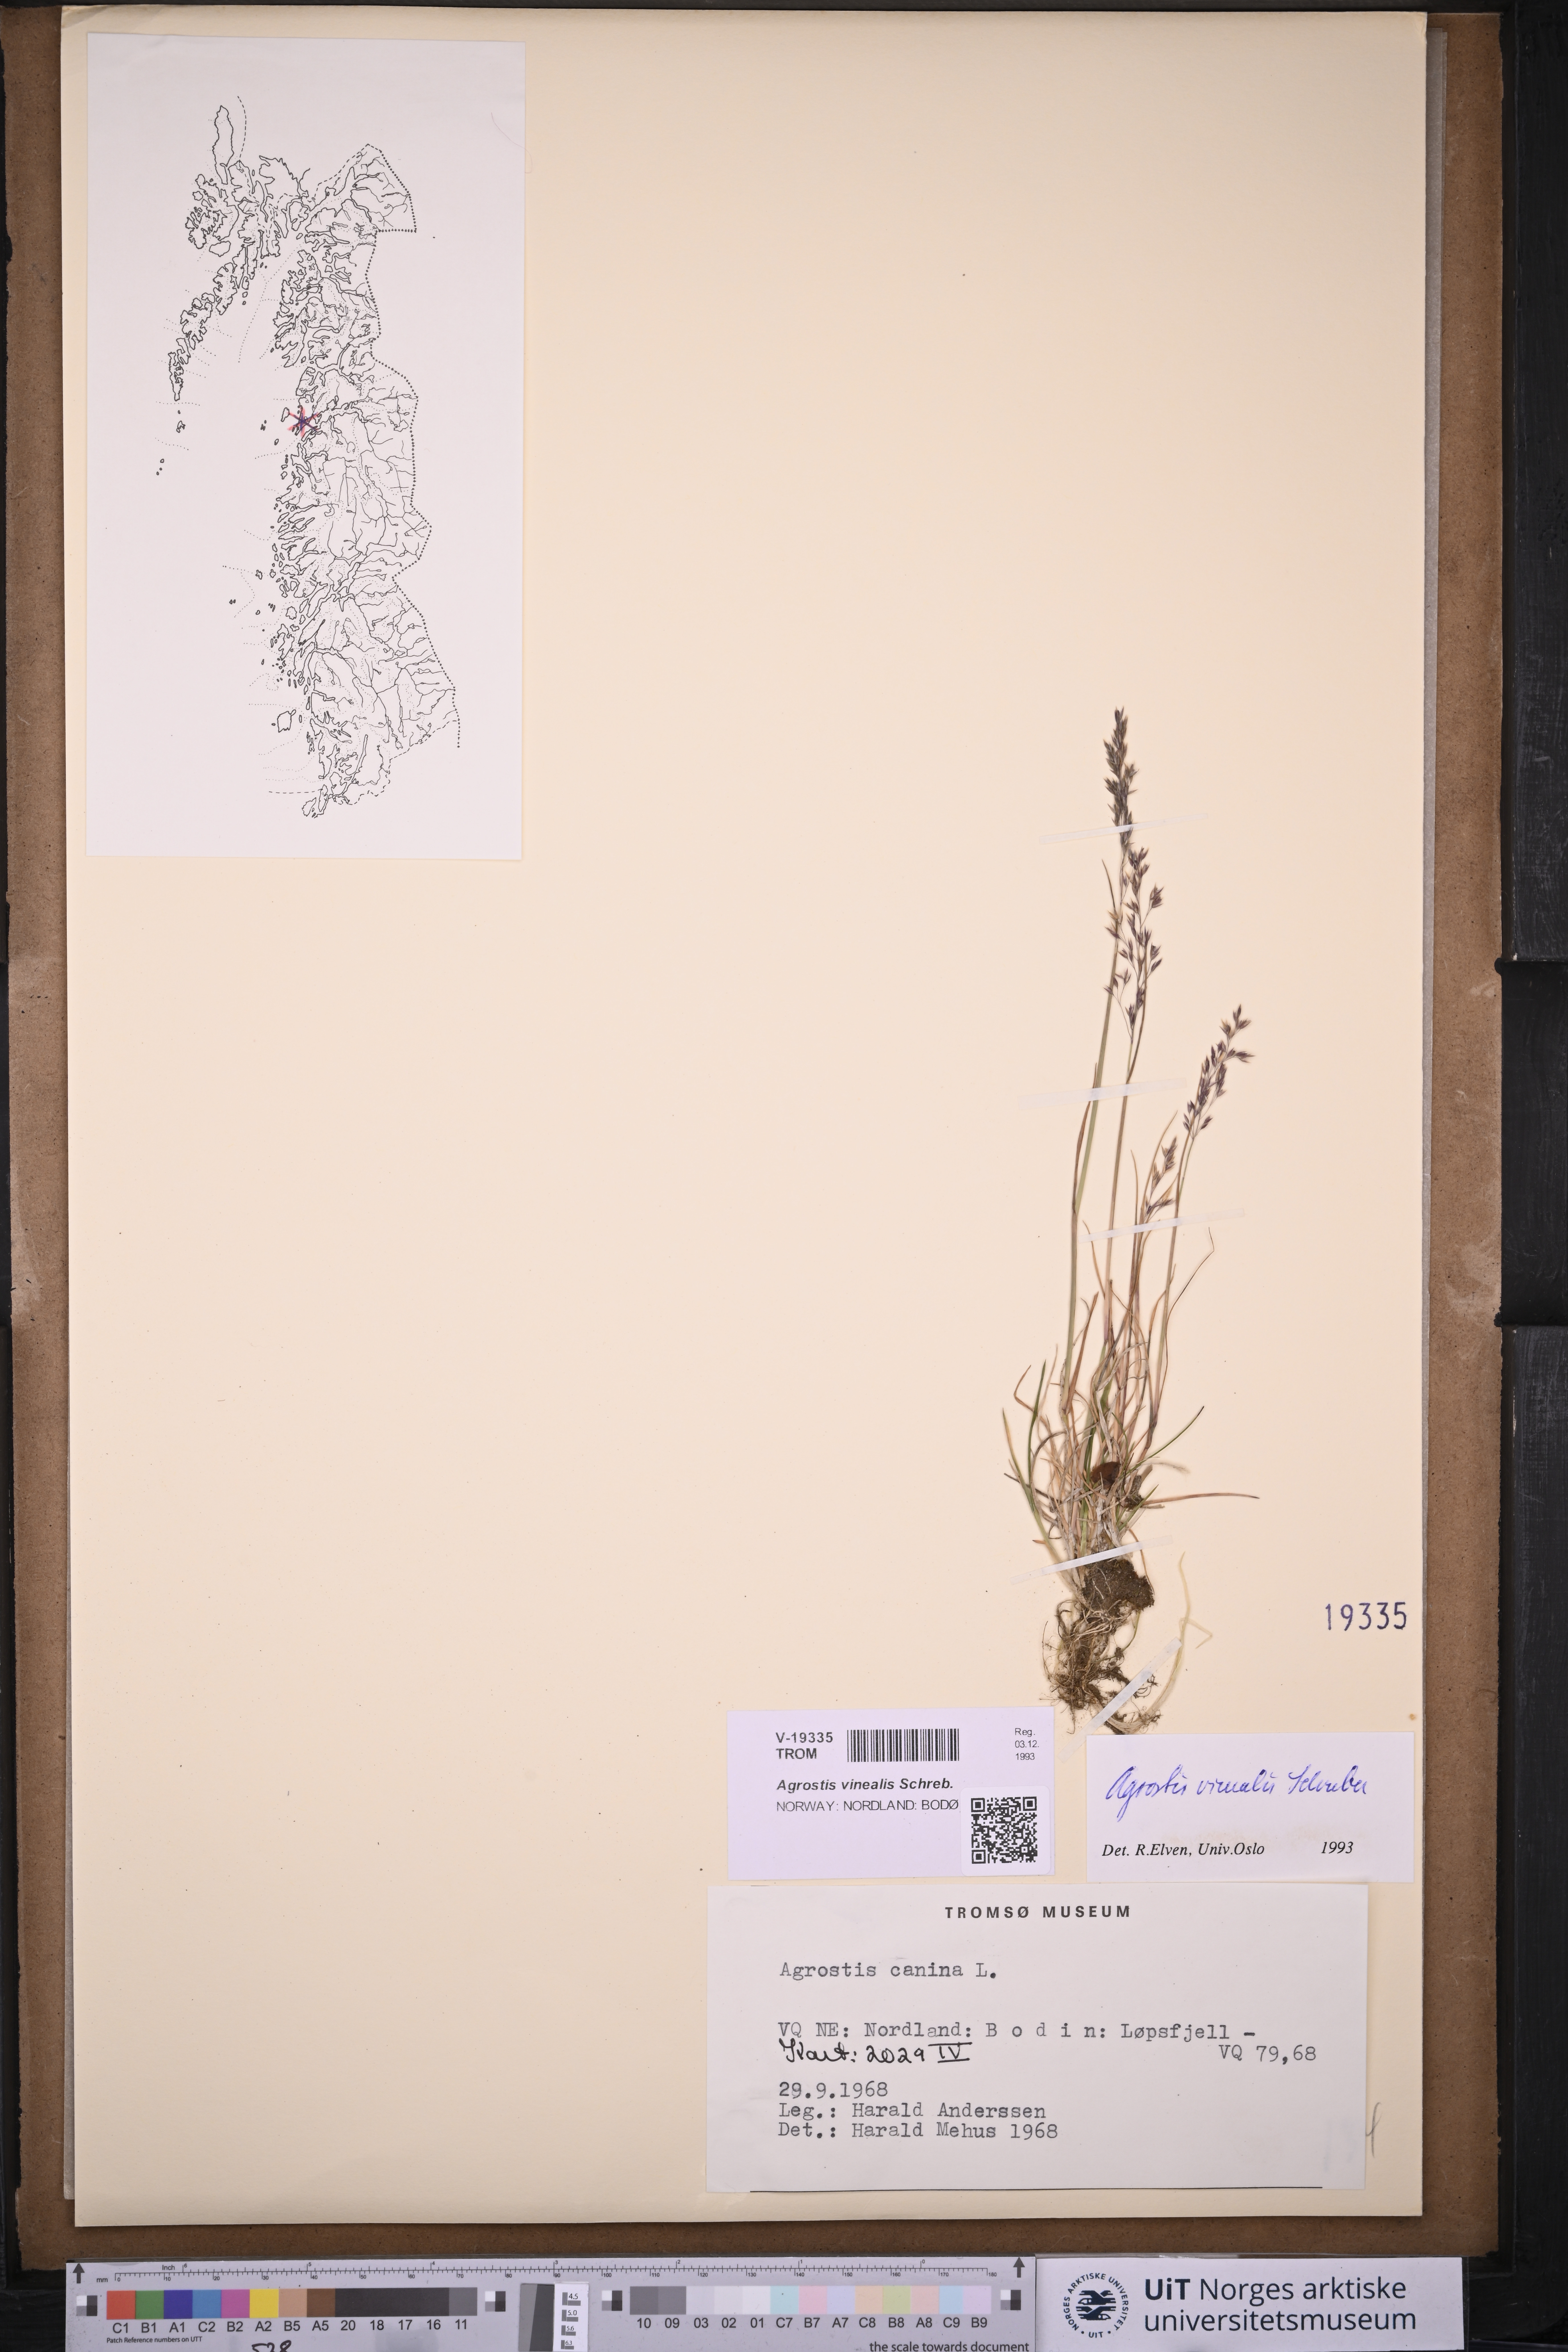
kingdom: Plantae
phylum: Tracheophyta
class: Liliopsida
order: Poales
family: Poaceae
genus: Agrostis
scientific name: Agrostis vinealis
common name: Brown bent
